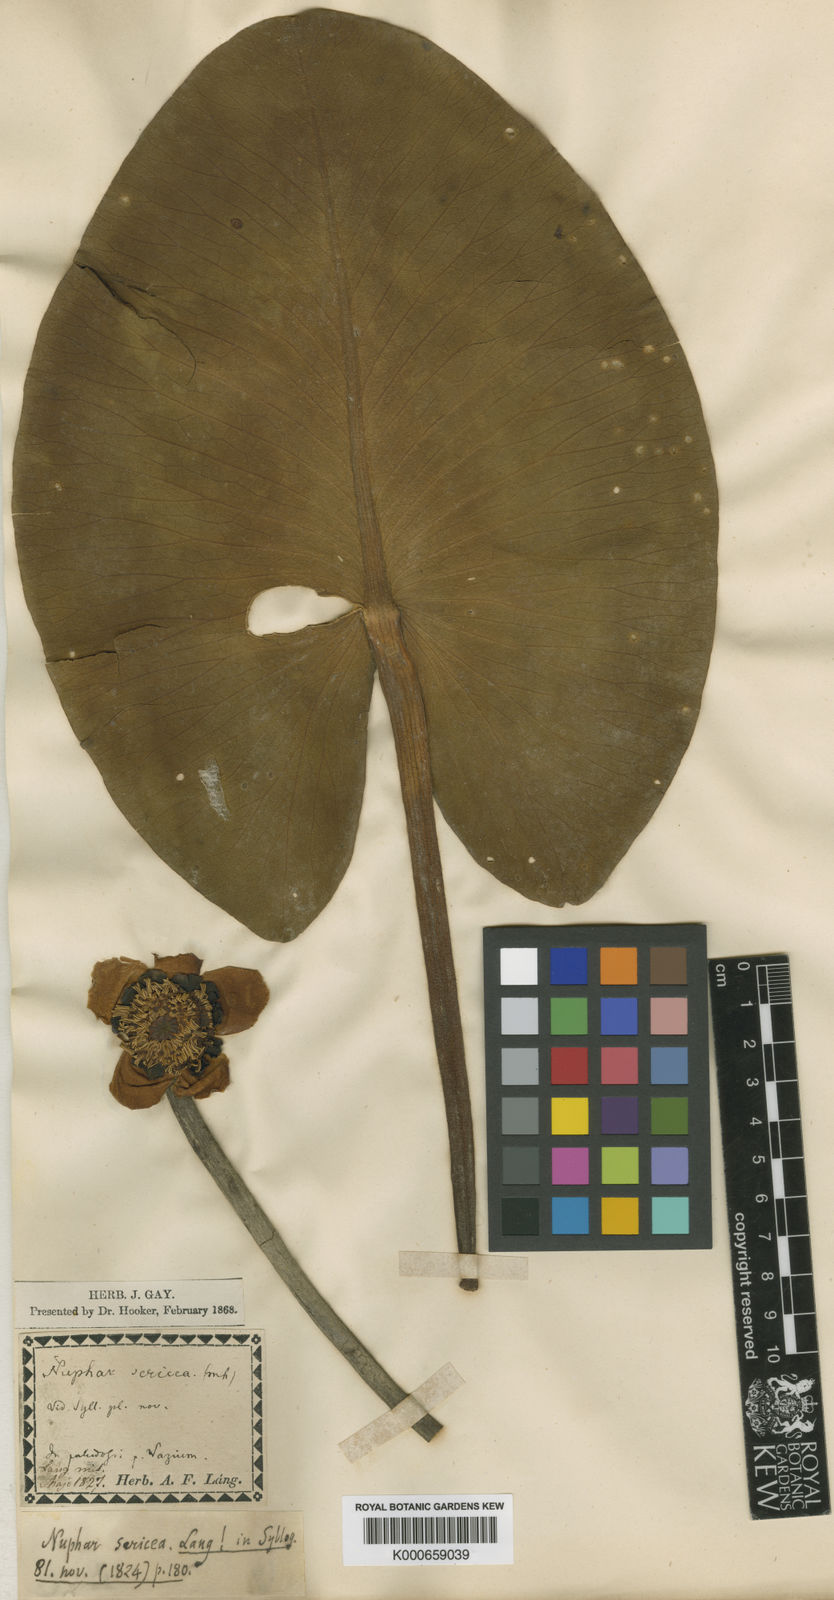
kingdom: Plantae
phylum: Tracheophyta
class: Magnoliopsida
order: Nymphaeales
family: Nymphaeaceae
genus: Nuphar
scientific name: Nuphar
